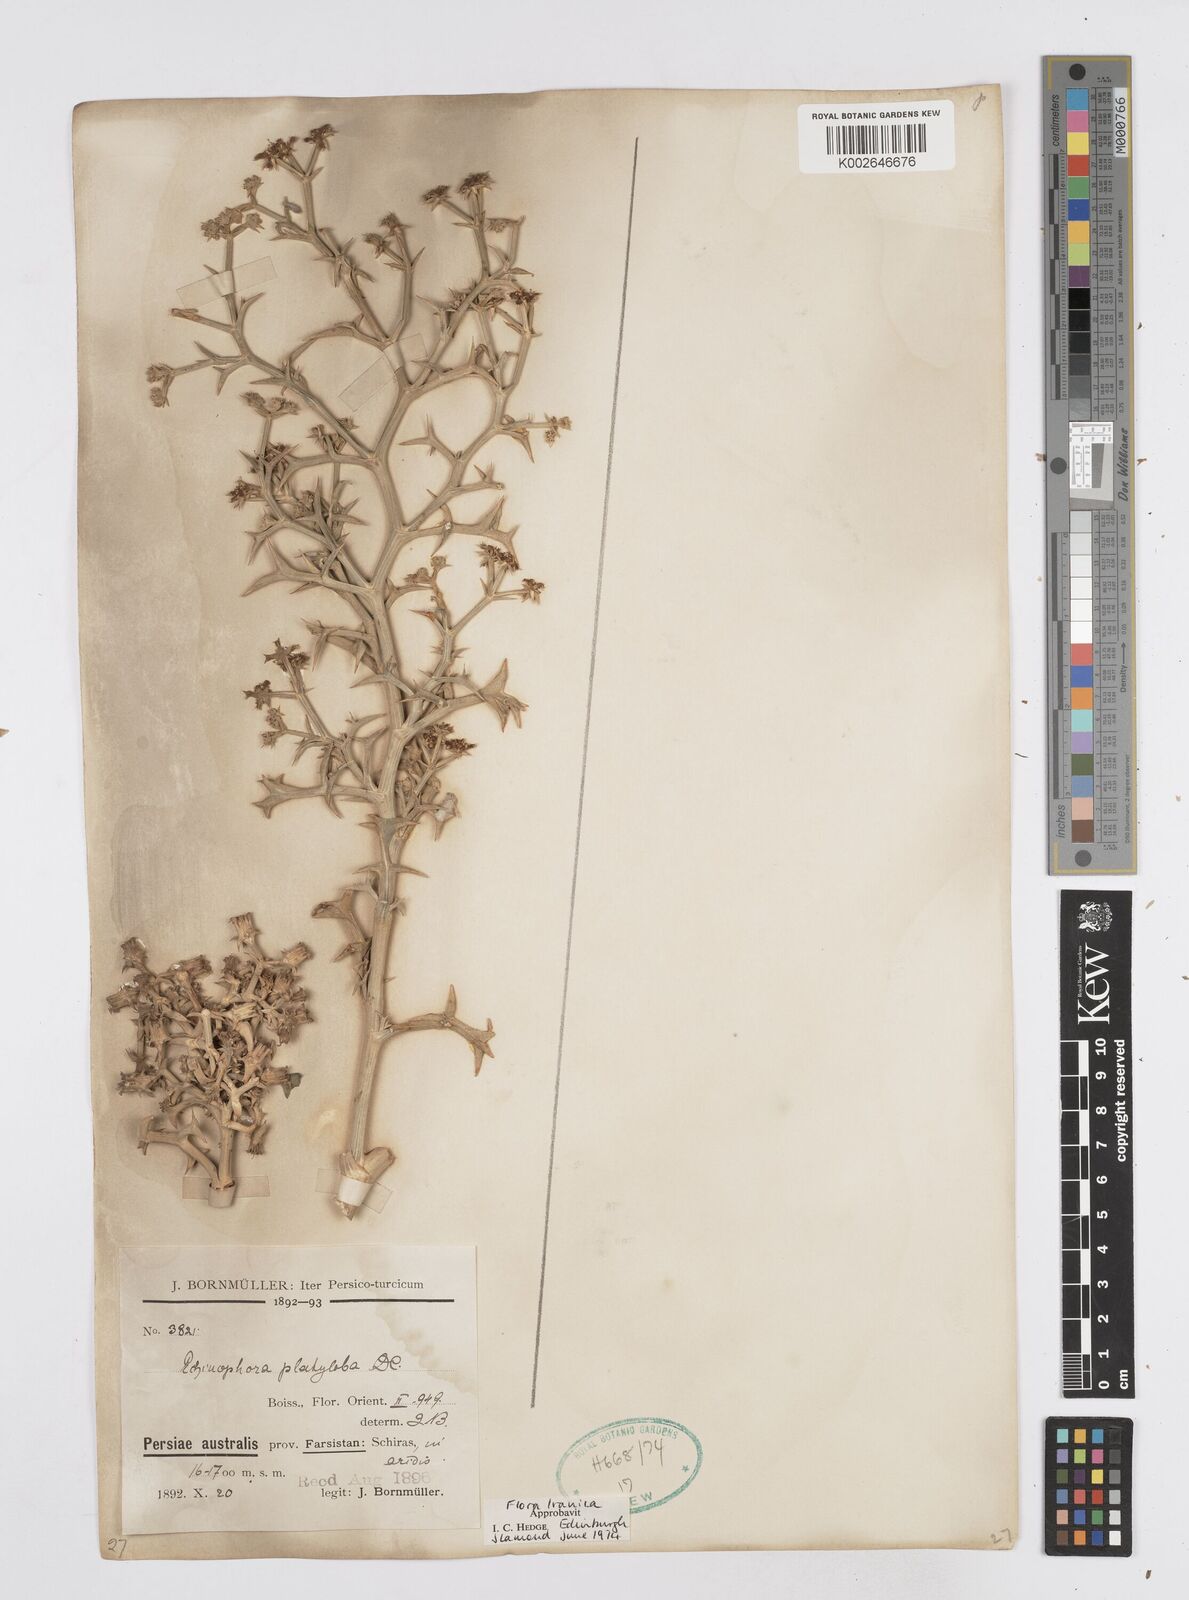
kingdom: Plantae
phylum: Tracheophyta
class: Magnoliopsida
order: Apiales
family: Apiaceae
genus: Echinophora
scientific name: Echinophora platyloba
